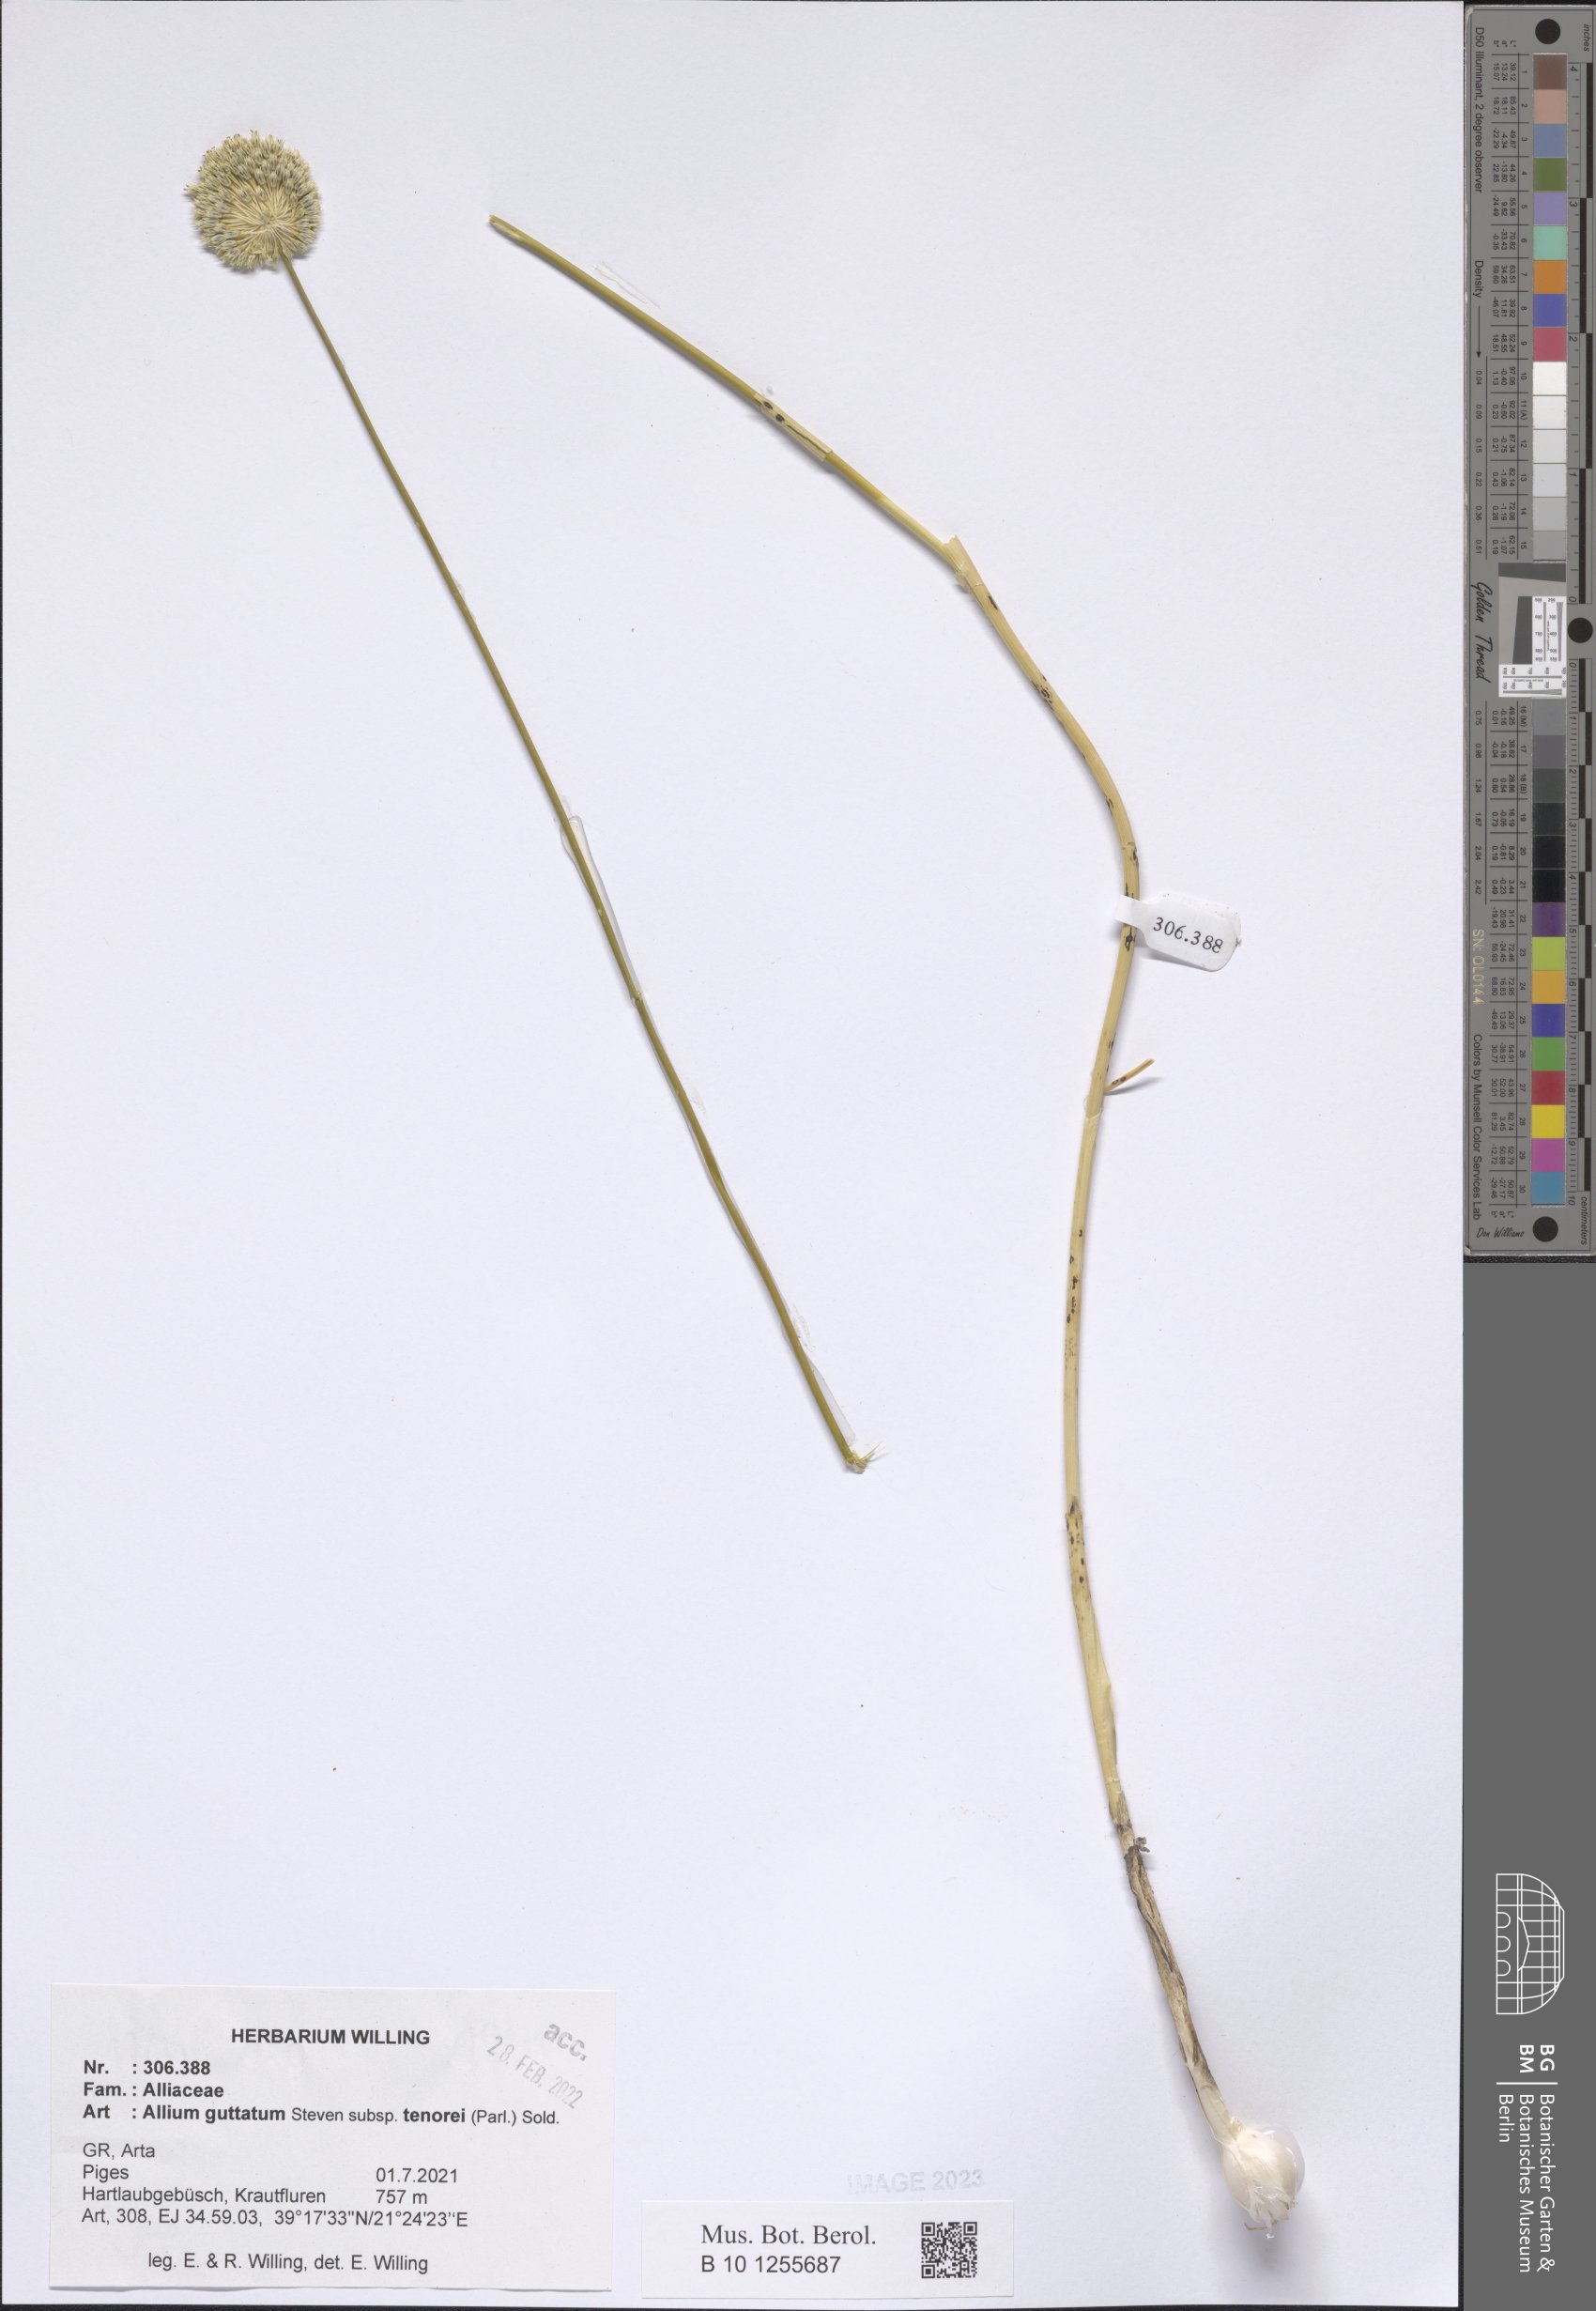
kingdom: Plantae
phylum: Tracheophyta
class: Liliopsida
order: Asparagales
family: Amaryllidaceae
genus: Allium
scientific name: Allium sardoum
